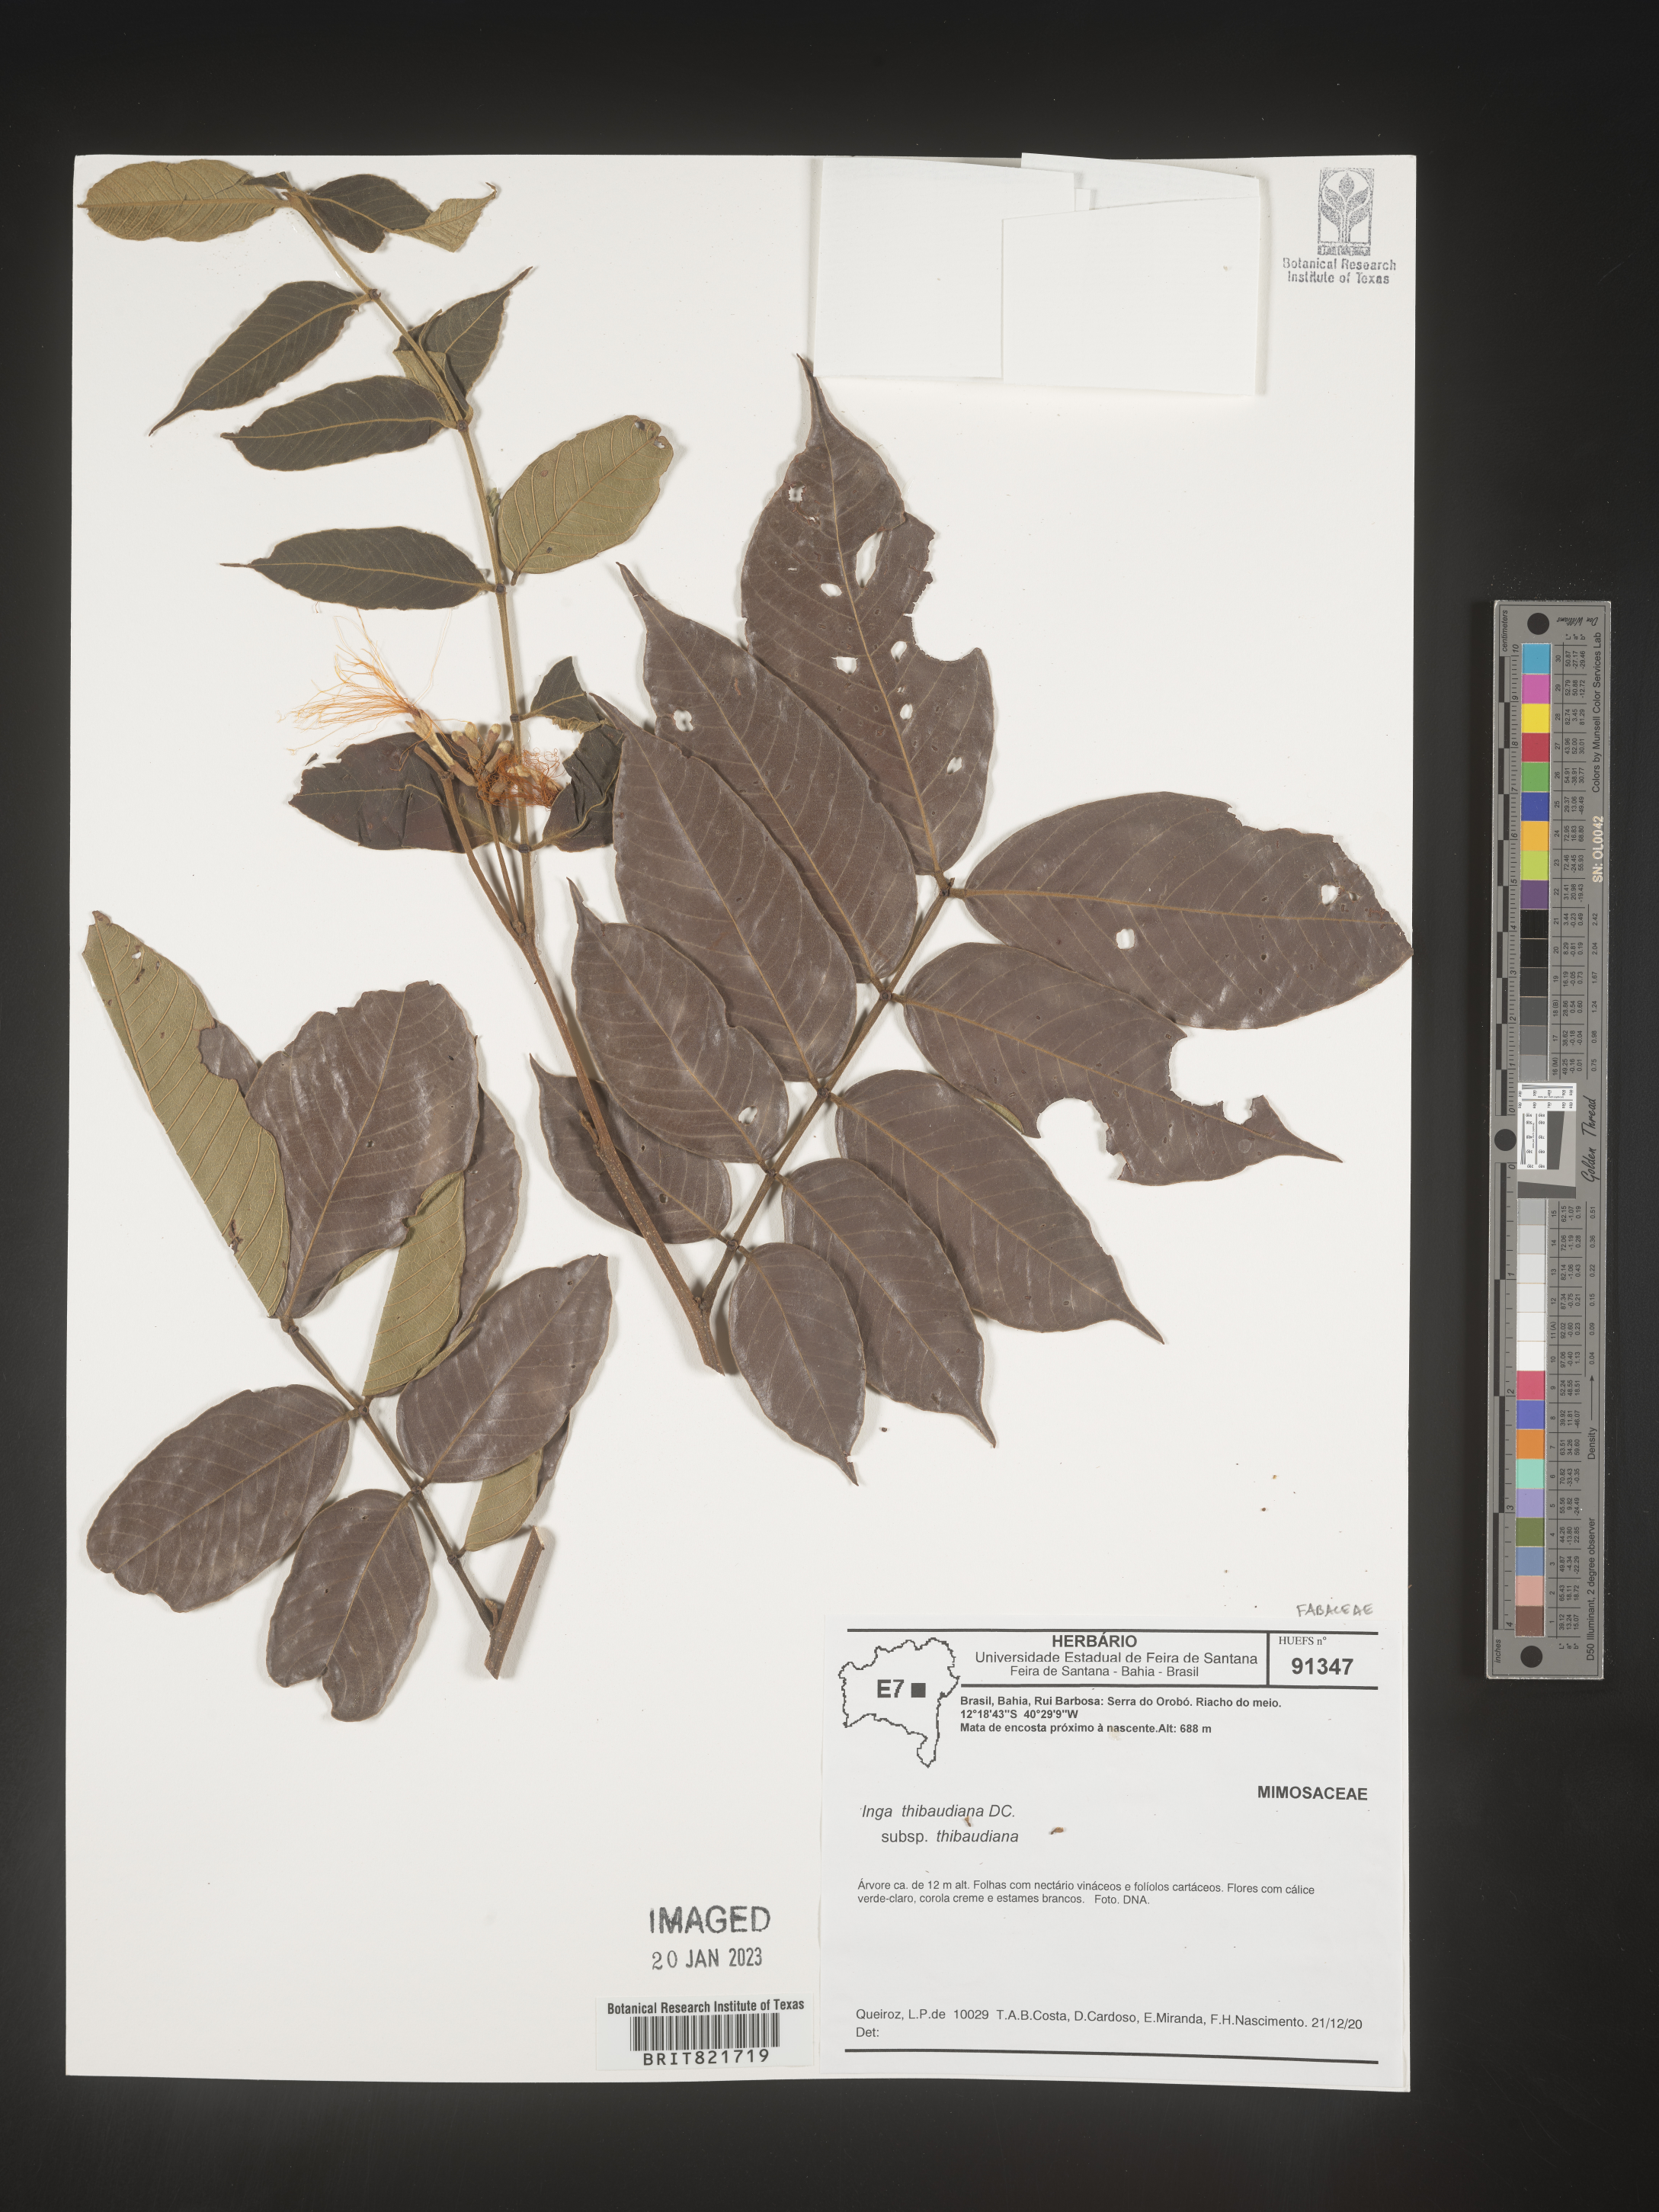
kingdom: Plantae
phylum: Tracheophyta
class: Magnoliopsida
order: Fabales
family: Fabaceae
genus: Inga
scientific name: Inga
